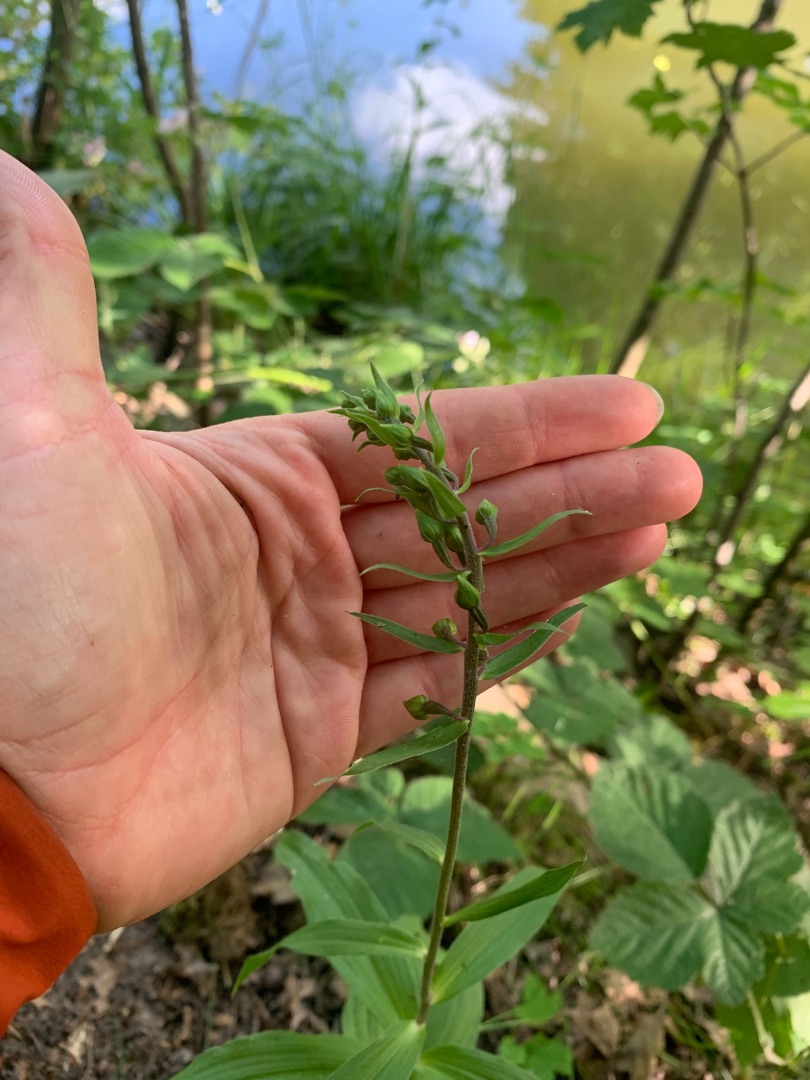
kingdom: Plantae
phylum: Tracheophyta
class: Liliopsida
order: Asparagales
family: Orchidaceae
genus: Epipactis
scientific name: Epipactis helleborine
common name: Skov-hullæbe
